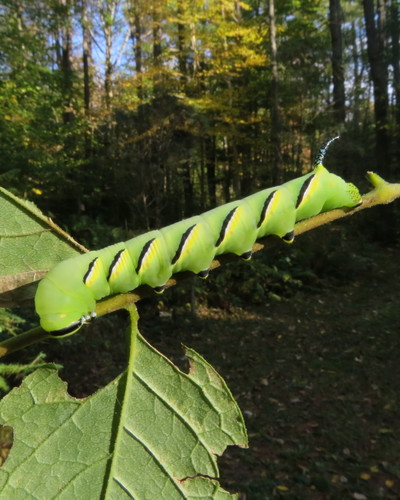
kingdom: Animalia
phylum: Arthropoda
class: Insecta
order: Lepidoptera
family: Sphingidae
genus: Sphinx
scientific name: Sphinx kalmiae
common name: Laurel sphinx
